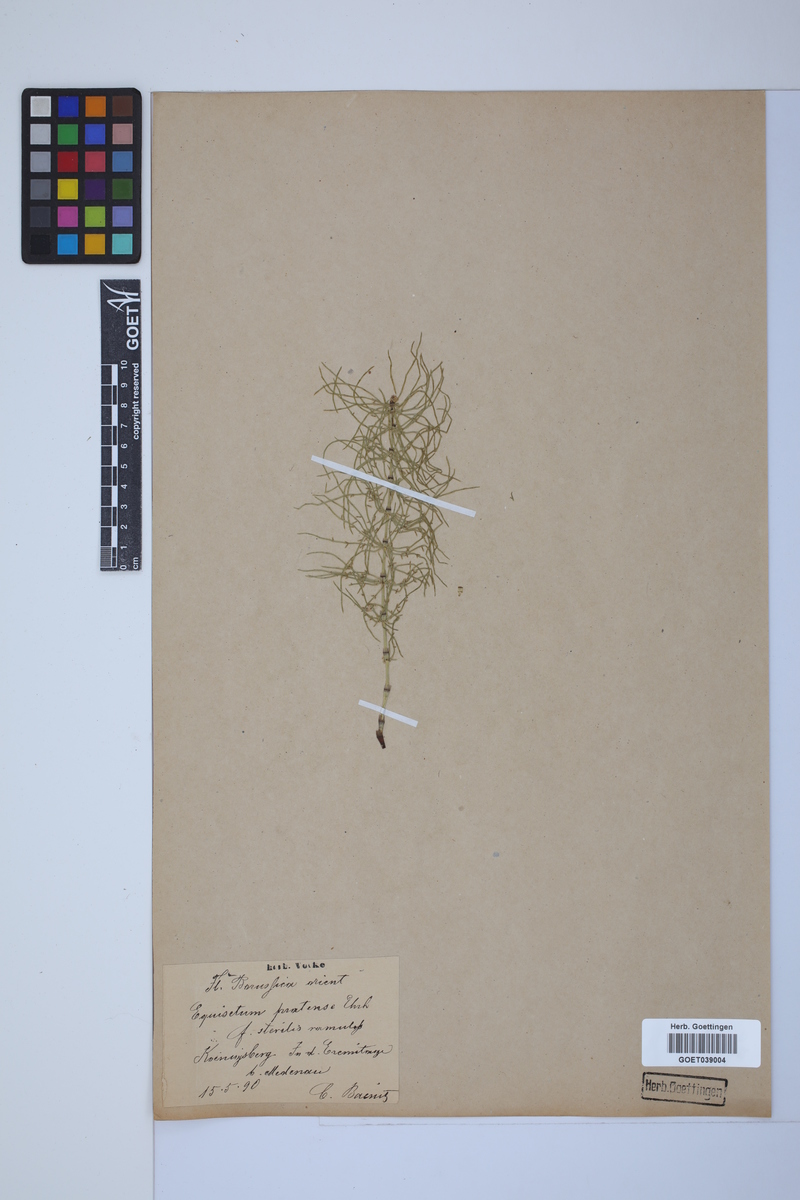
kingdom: Plantae
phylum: Tracheophyta
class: Polypodiopsida
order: Equisetales
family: Equisetaceae
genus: Equisetum
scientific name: Equisetum pratense
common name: Meadow horsetail
